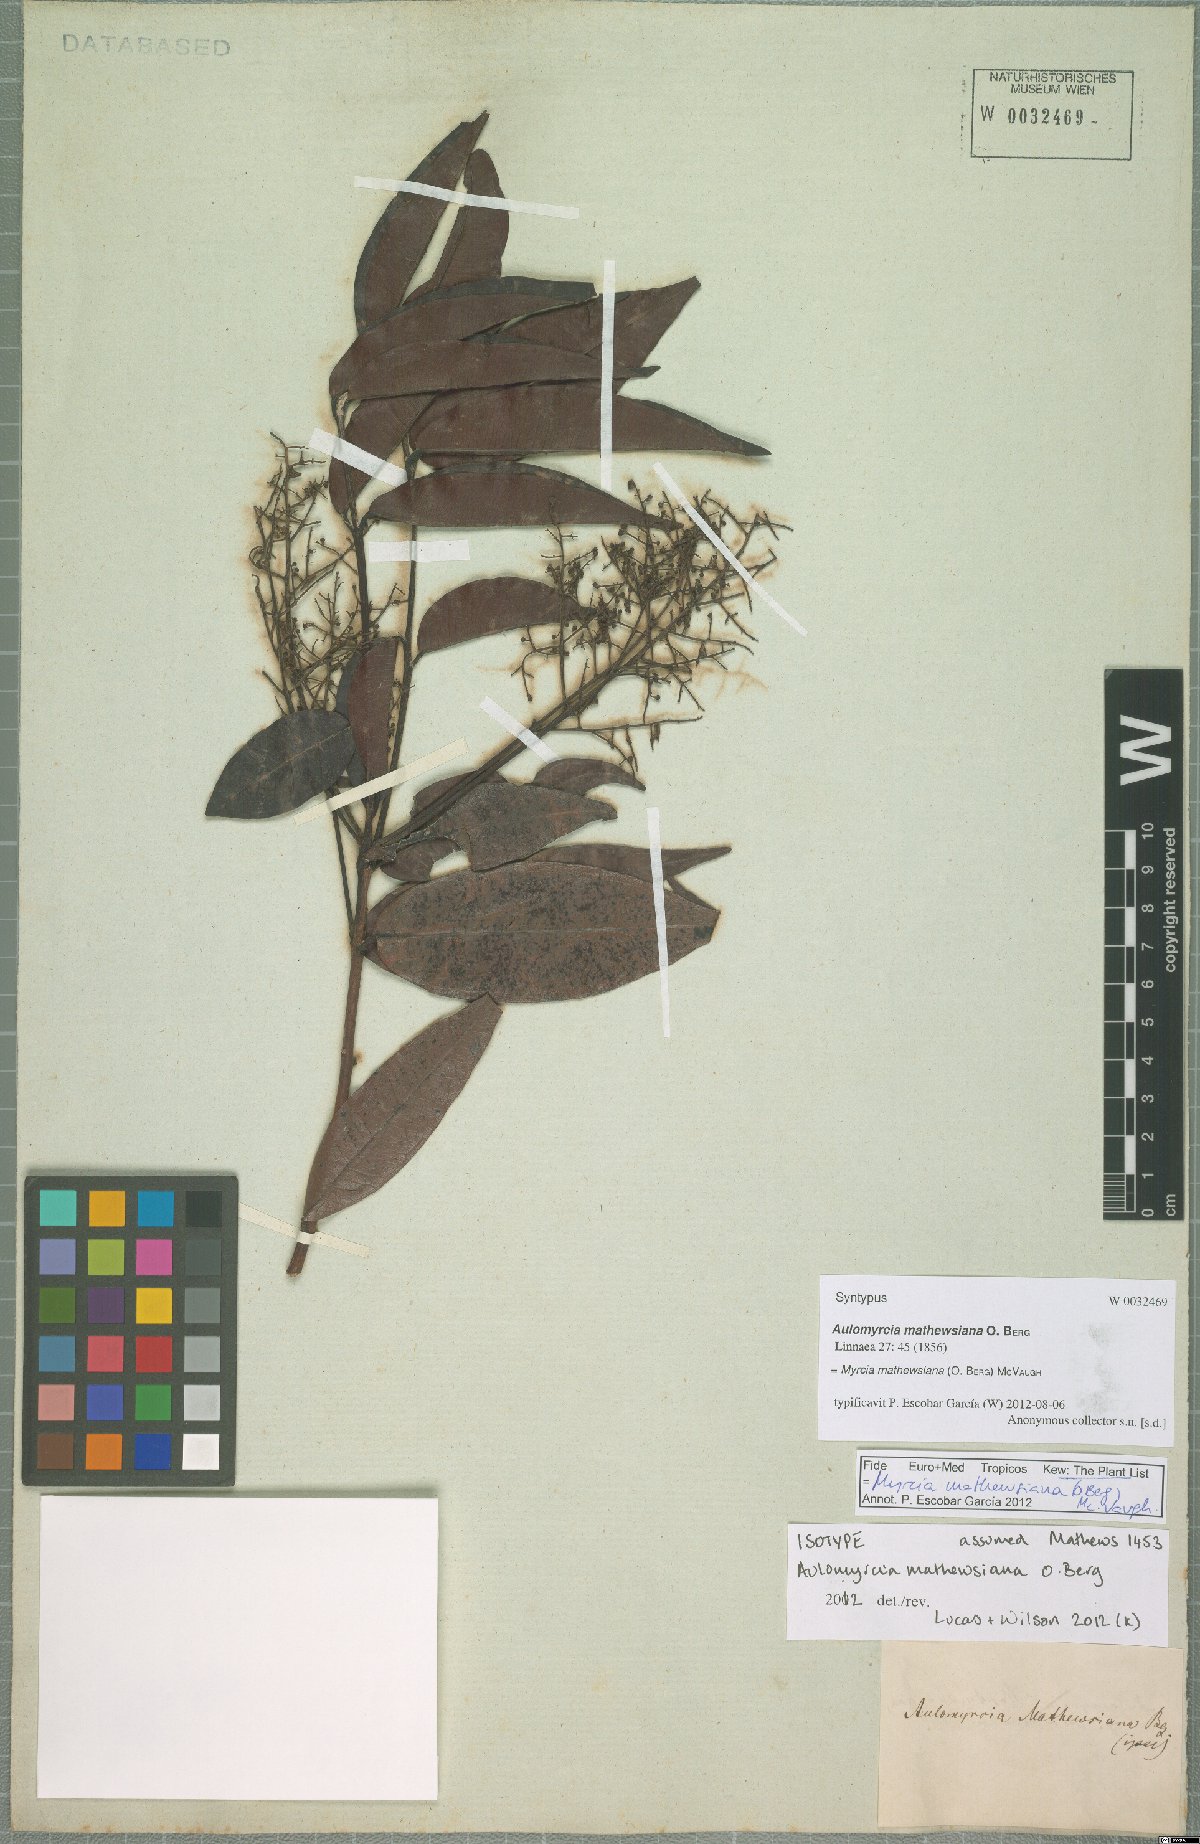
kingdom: Plantae
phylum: Tracheophyta
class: Magnoliopsida
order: Myrtales
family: Myrtaceae
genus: Myrcia
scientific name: Myrcia mathewsiana
